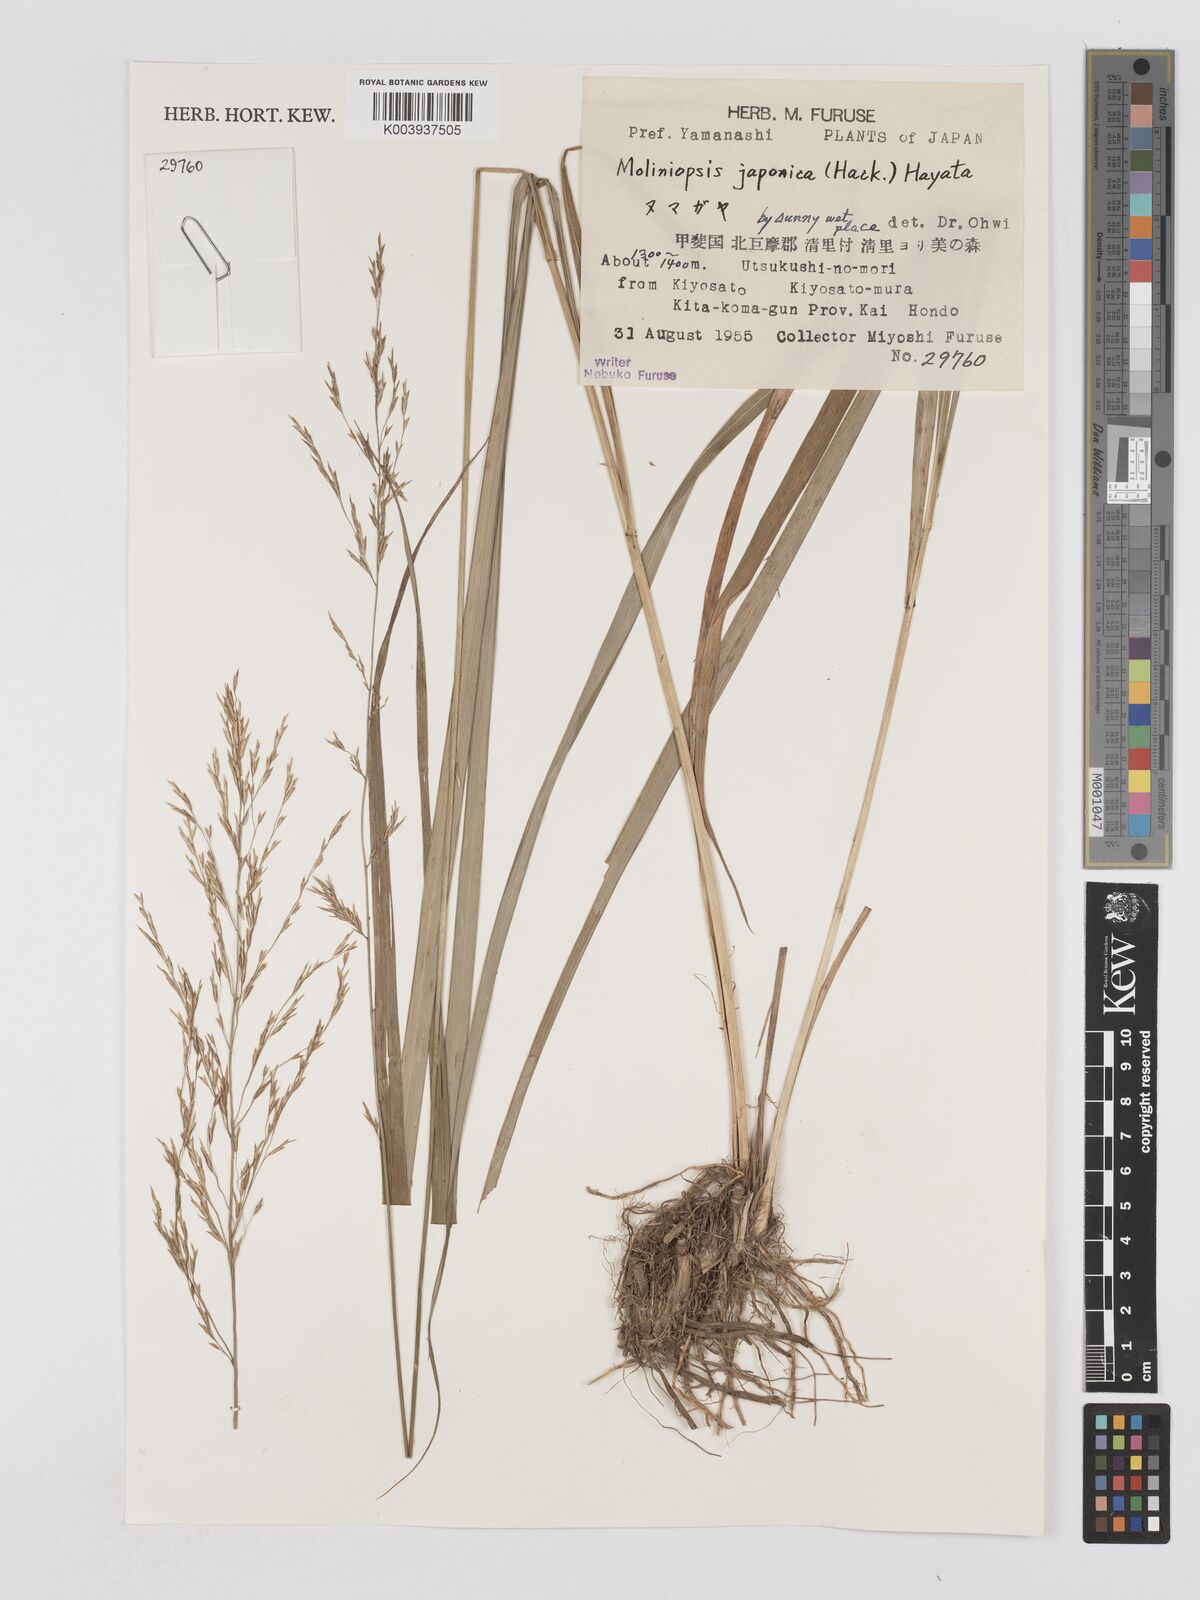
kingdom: Plantae
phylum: Tracheophyta
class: Liliopsida
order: Poales
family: Poaceae
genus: Moliniopsis
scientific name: Moliniopsis japonica
